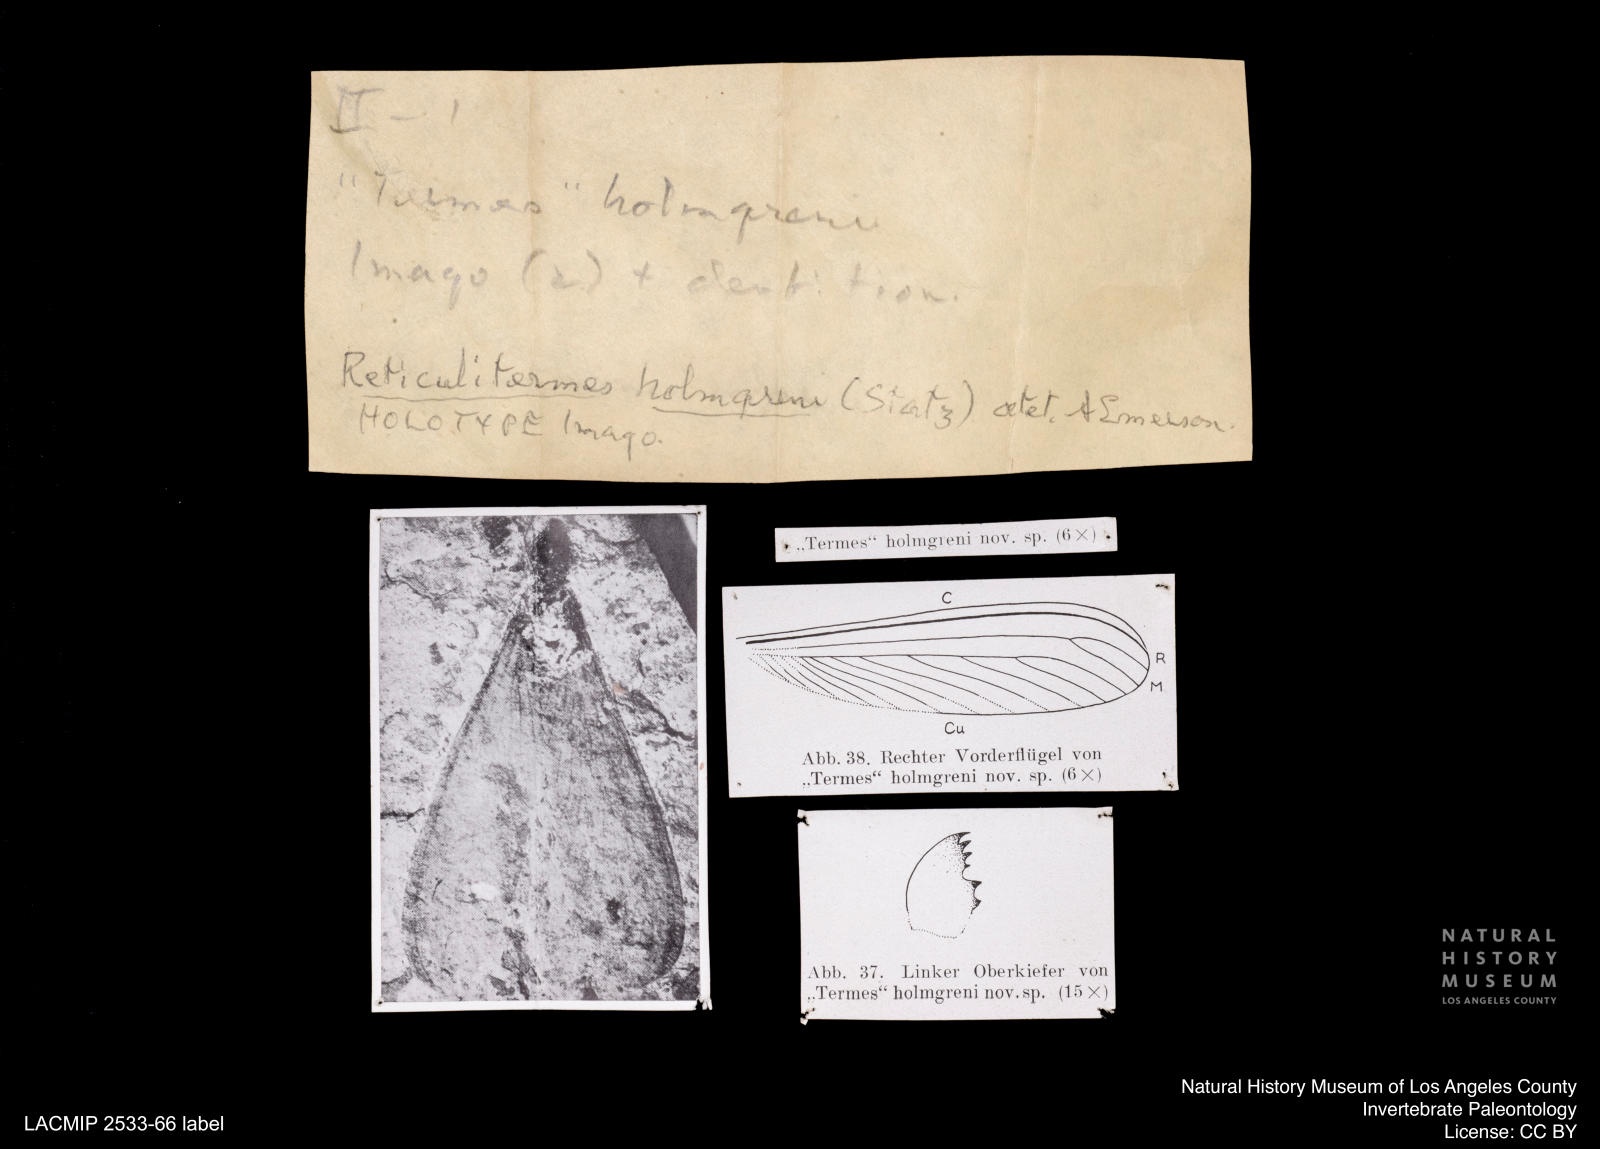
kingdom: Animalia
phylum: Arthropoda
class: Insecta
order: Blattodea
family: Rhinotermitidae
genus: Reticulitermes
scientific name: Reticulitermes holmgreni
